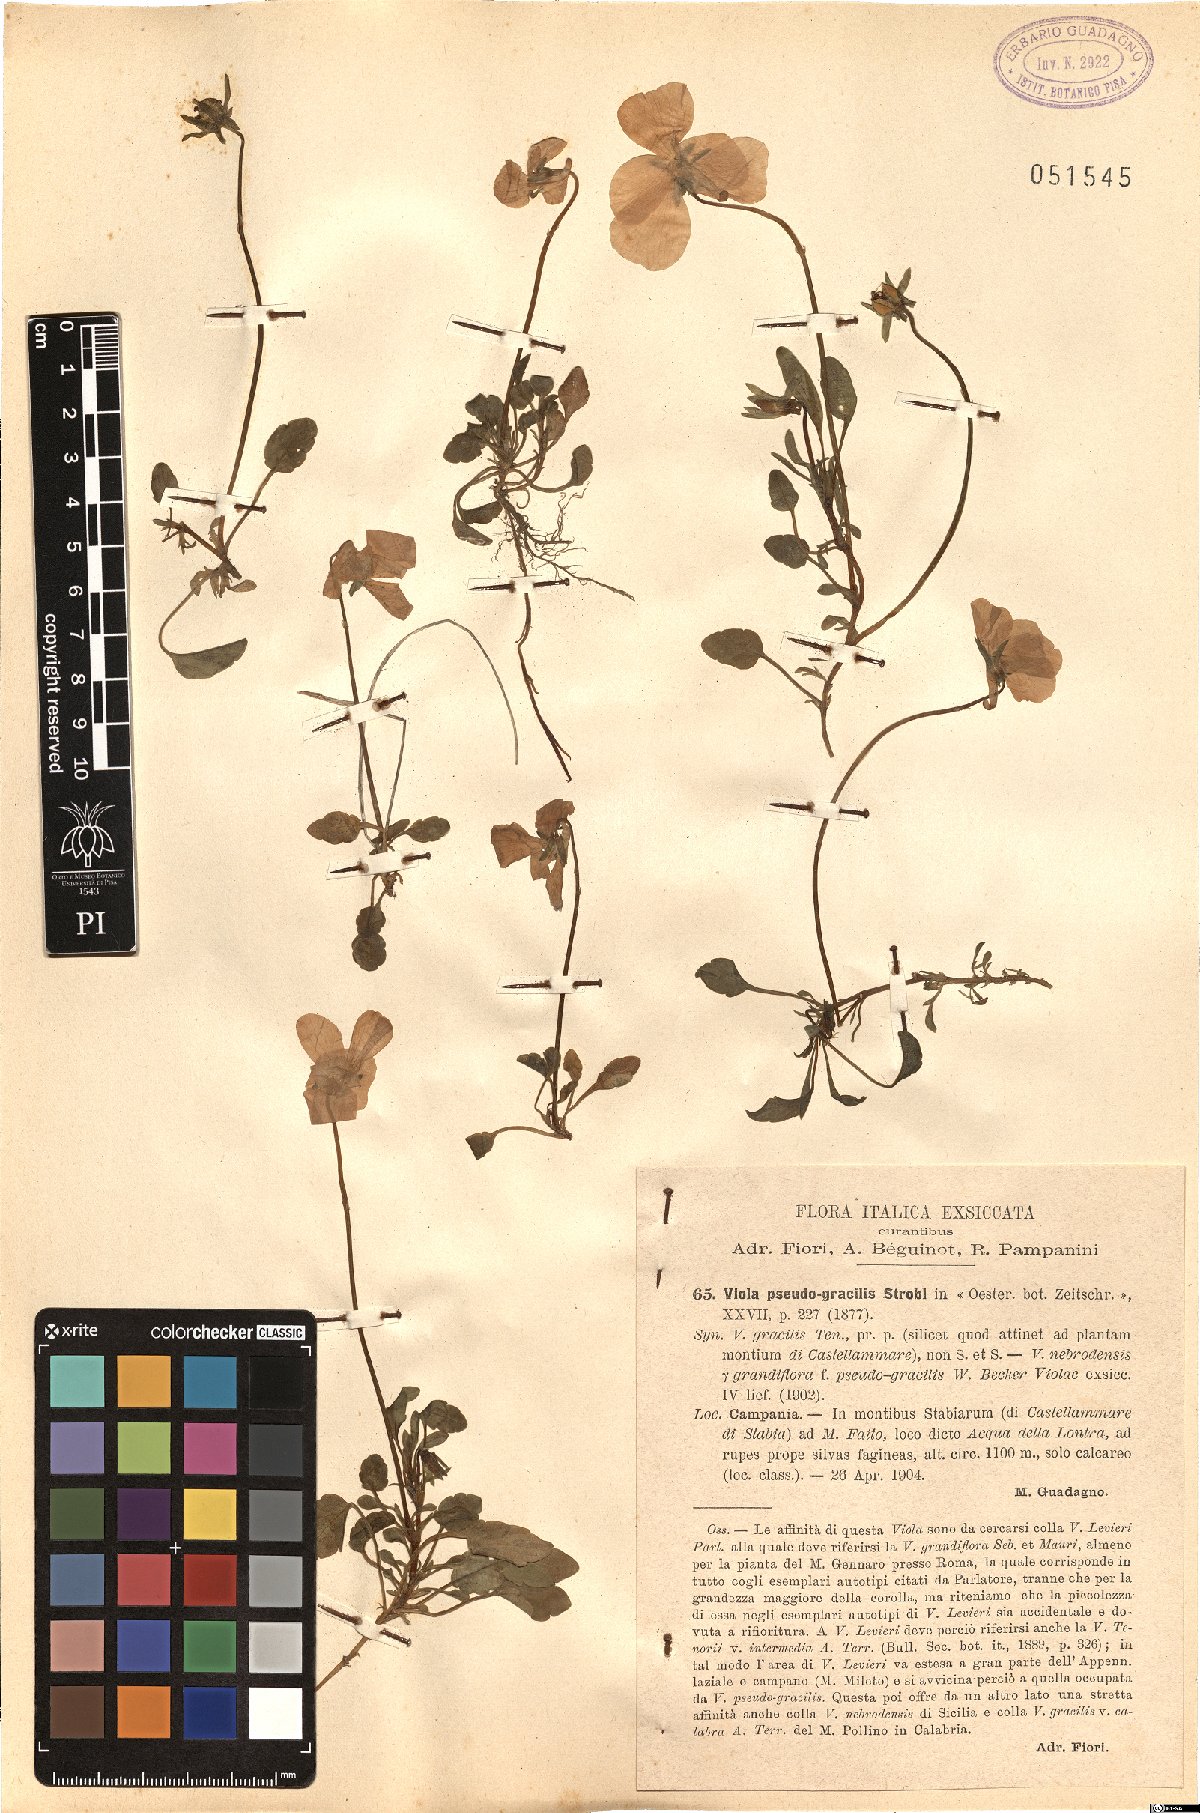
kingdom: Plantae
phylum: Tracheophyta
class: Magnoliopsida
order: Malpighiales
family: Violaceae
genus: Viola
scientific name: Viola pseudogracilis
